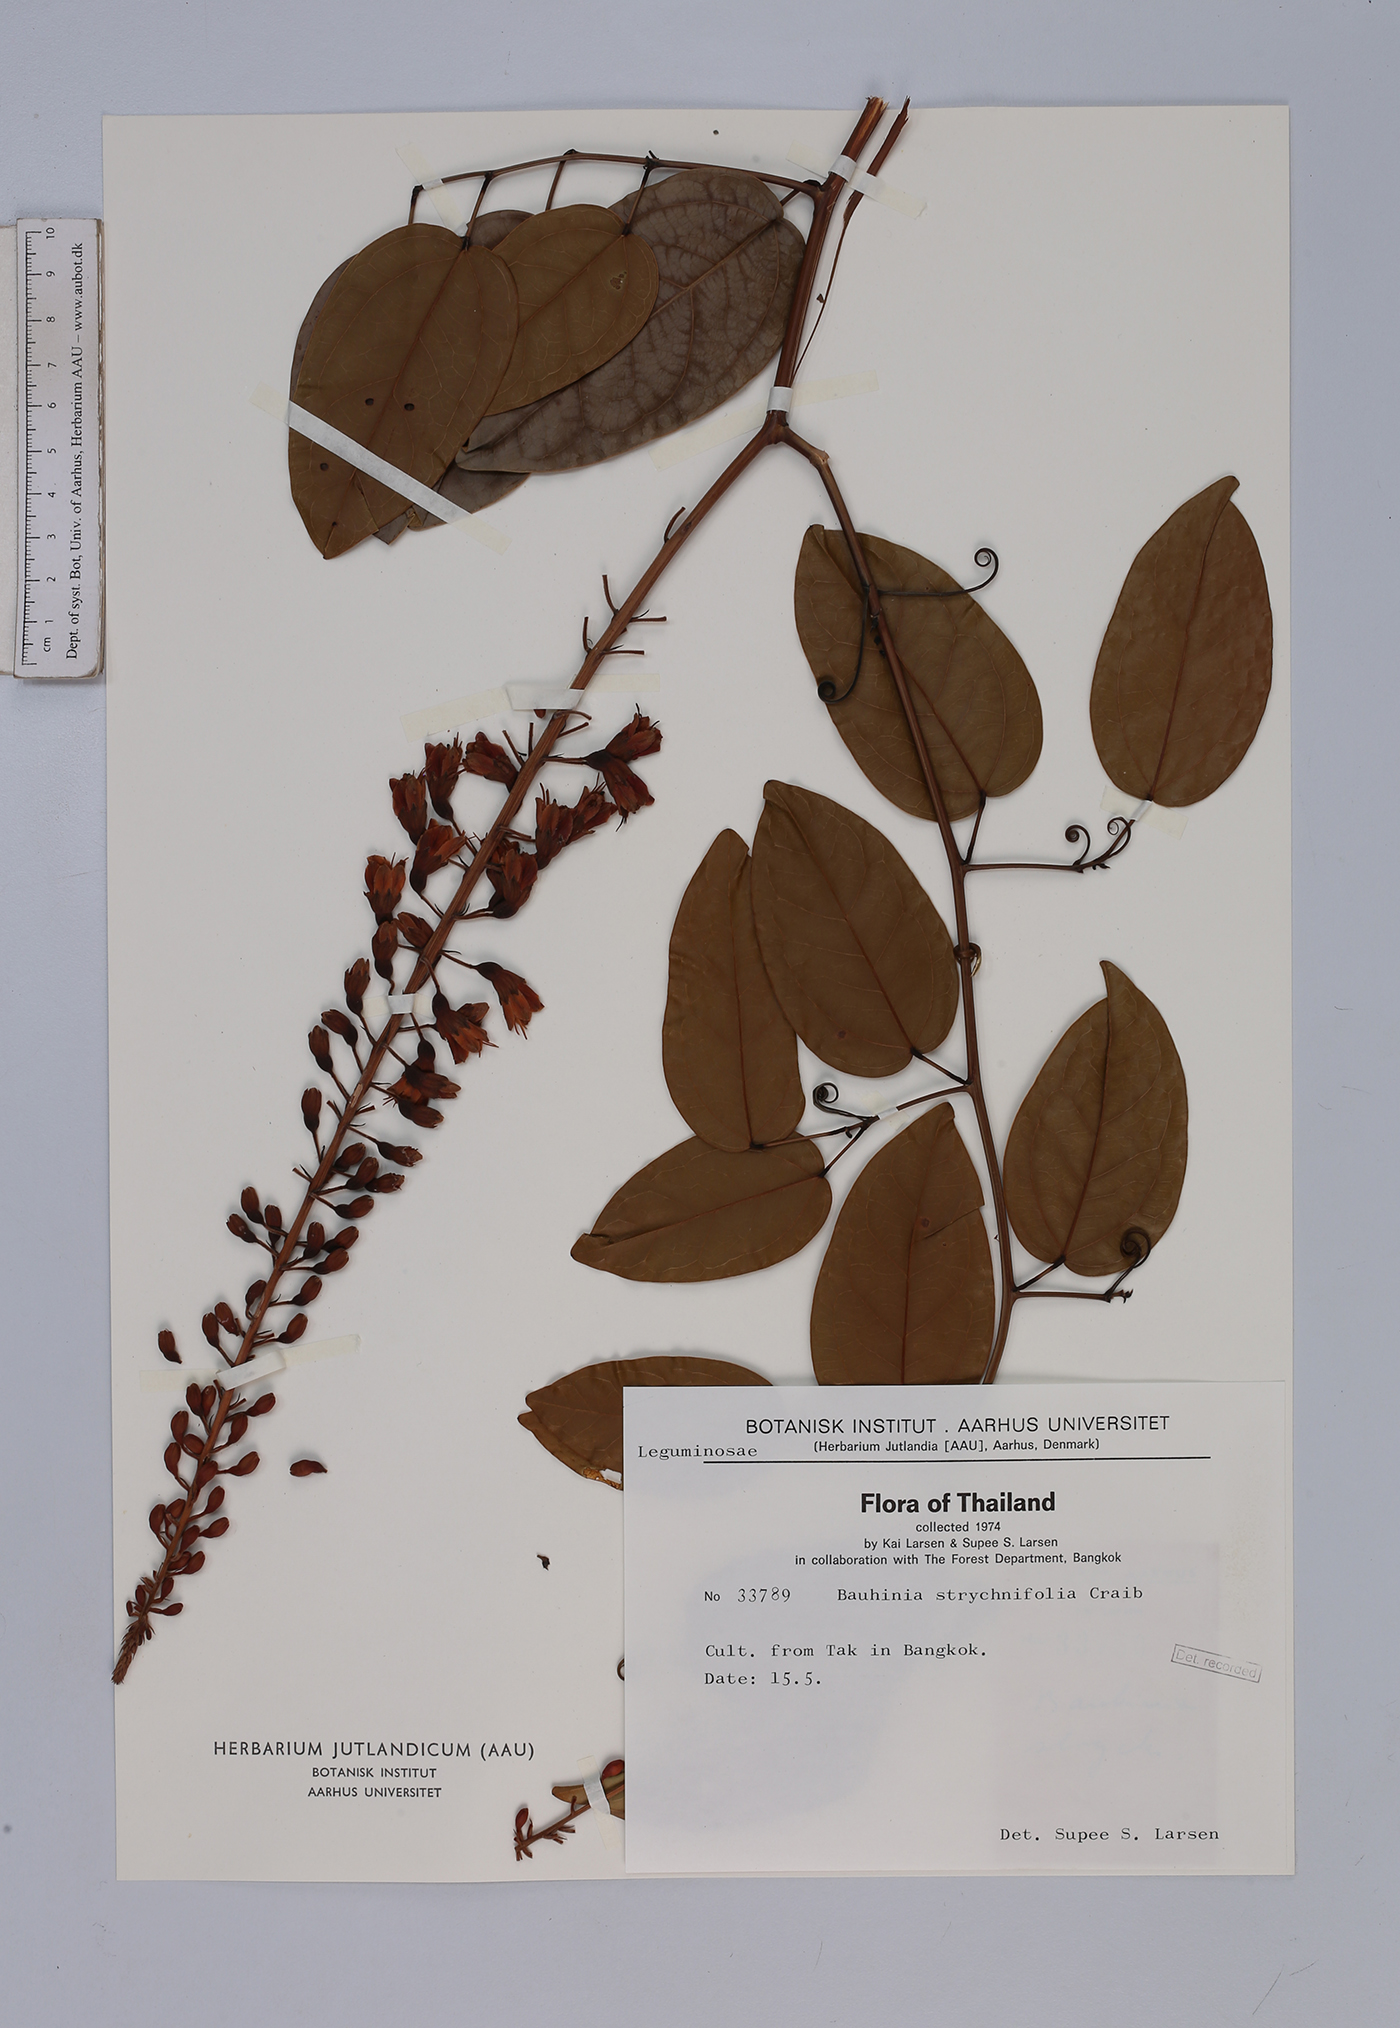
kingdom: Plantae
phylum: Tracheophyta
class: Magnoliopsida
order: Fabales
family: Fabaceae
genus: Lysiphyllum
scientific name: Lysiphyllum strychnifolium
